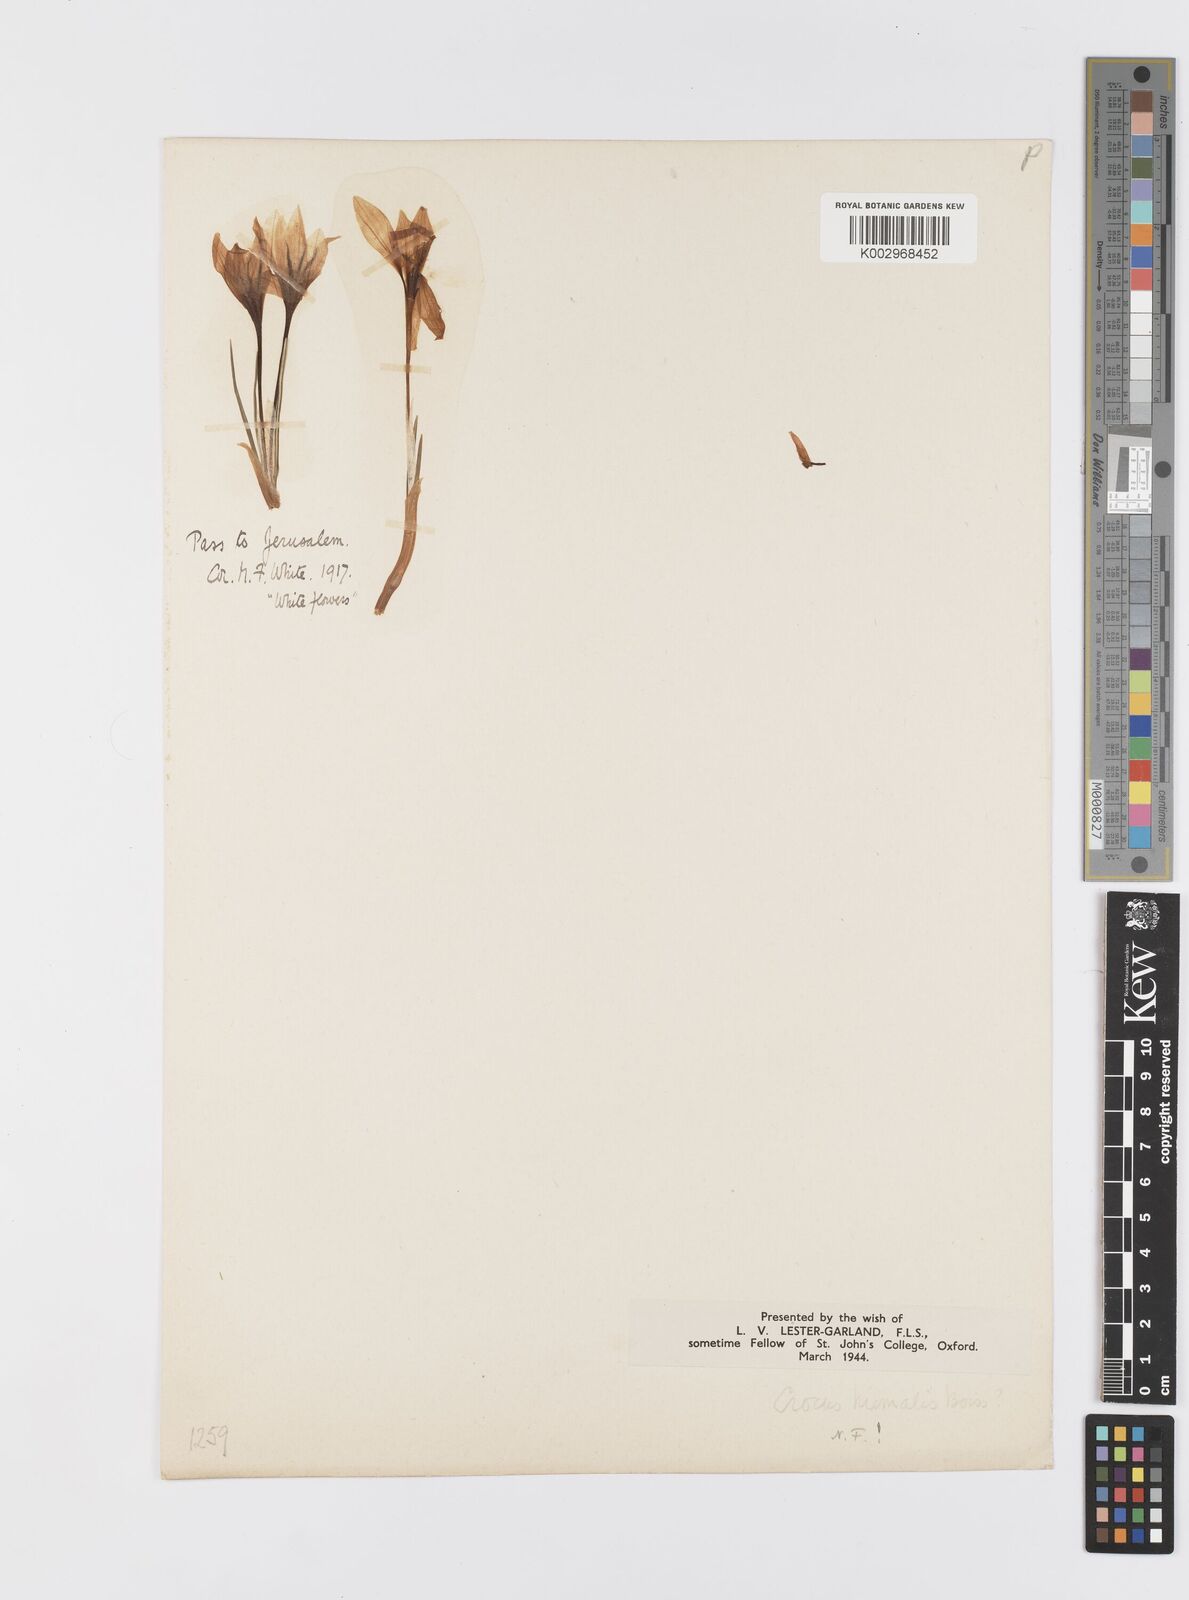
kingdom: Plantae
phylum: Tracheophyta
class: Liliopsida
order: Asparagales
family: Iridaceae
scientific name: Iridaceae
